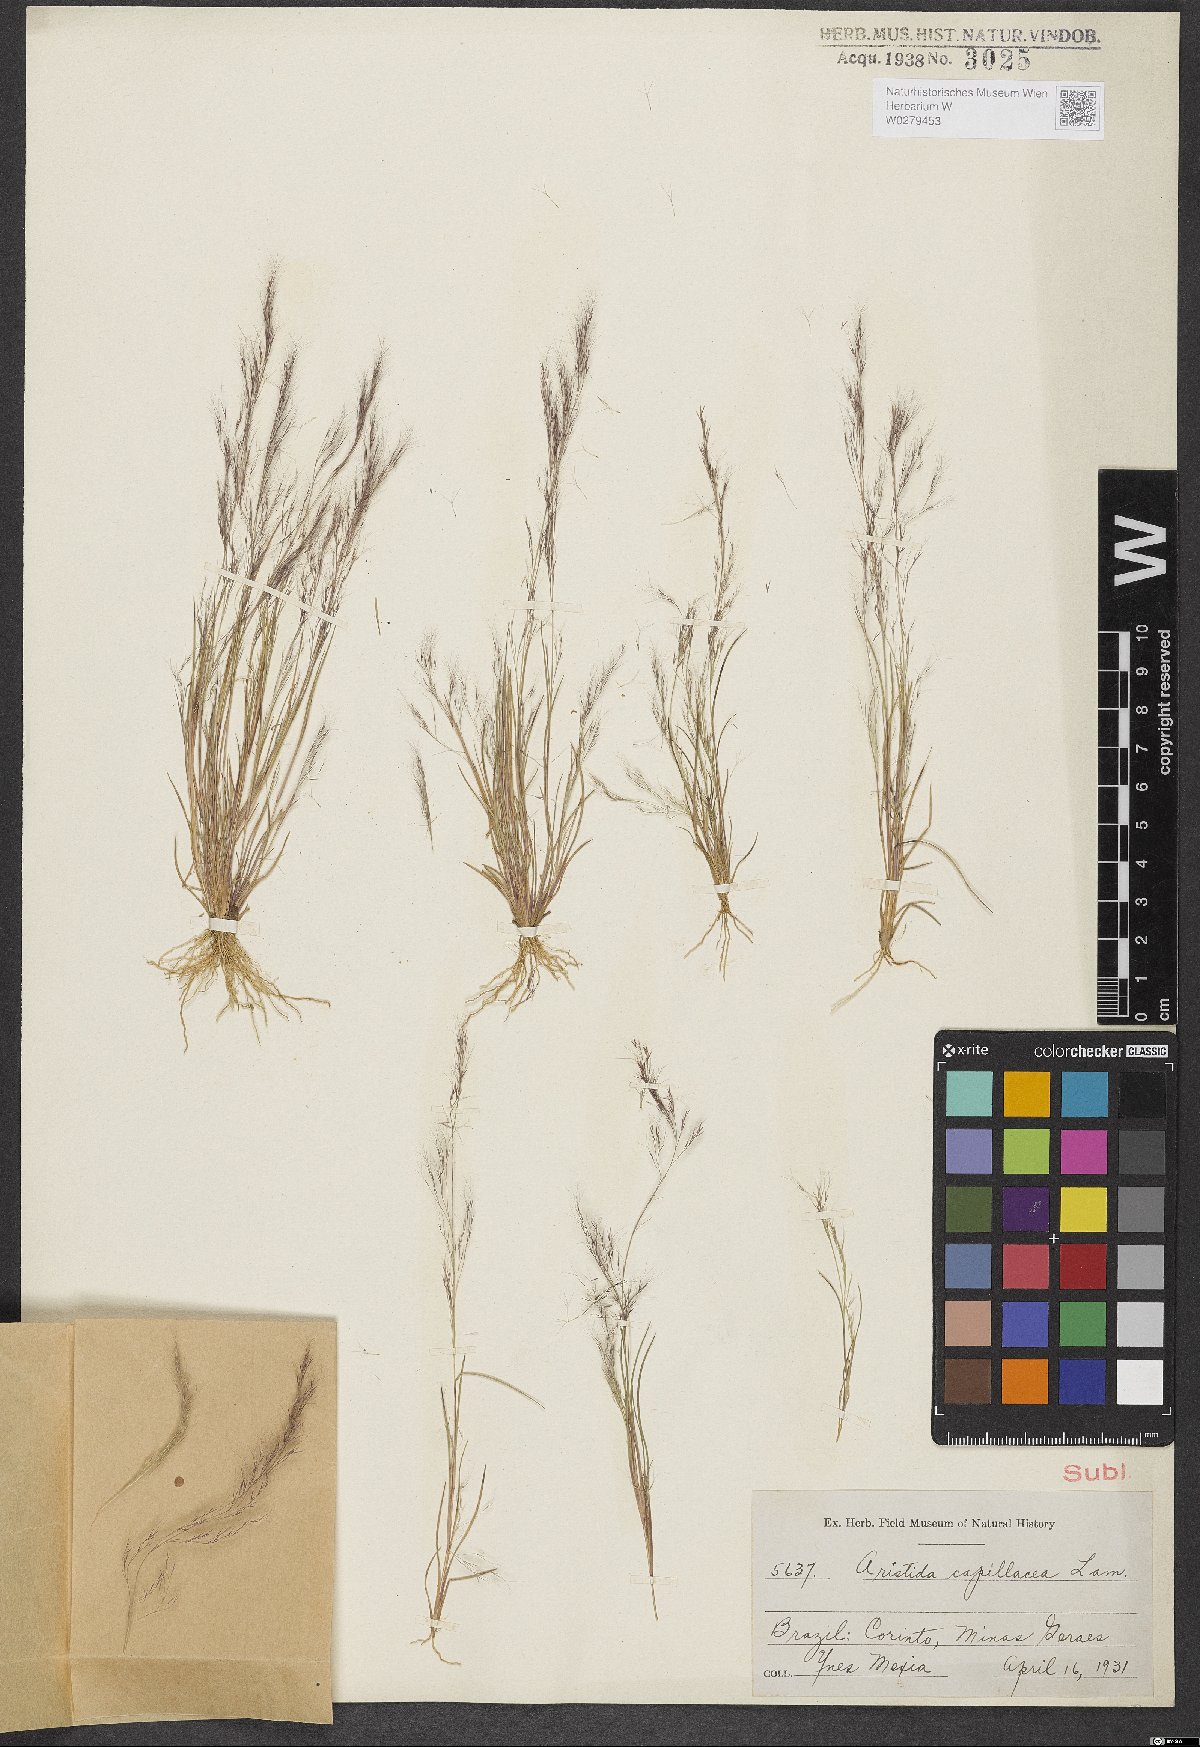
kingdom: Plantae
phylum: Tracheophyta
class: Liliopsida
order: Poales
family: Poaceae
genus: Aristida
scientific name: Aristida capillacea
